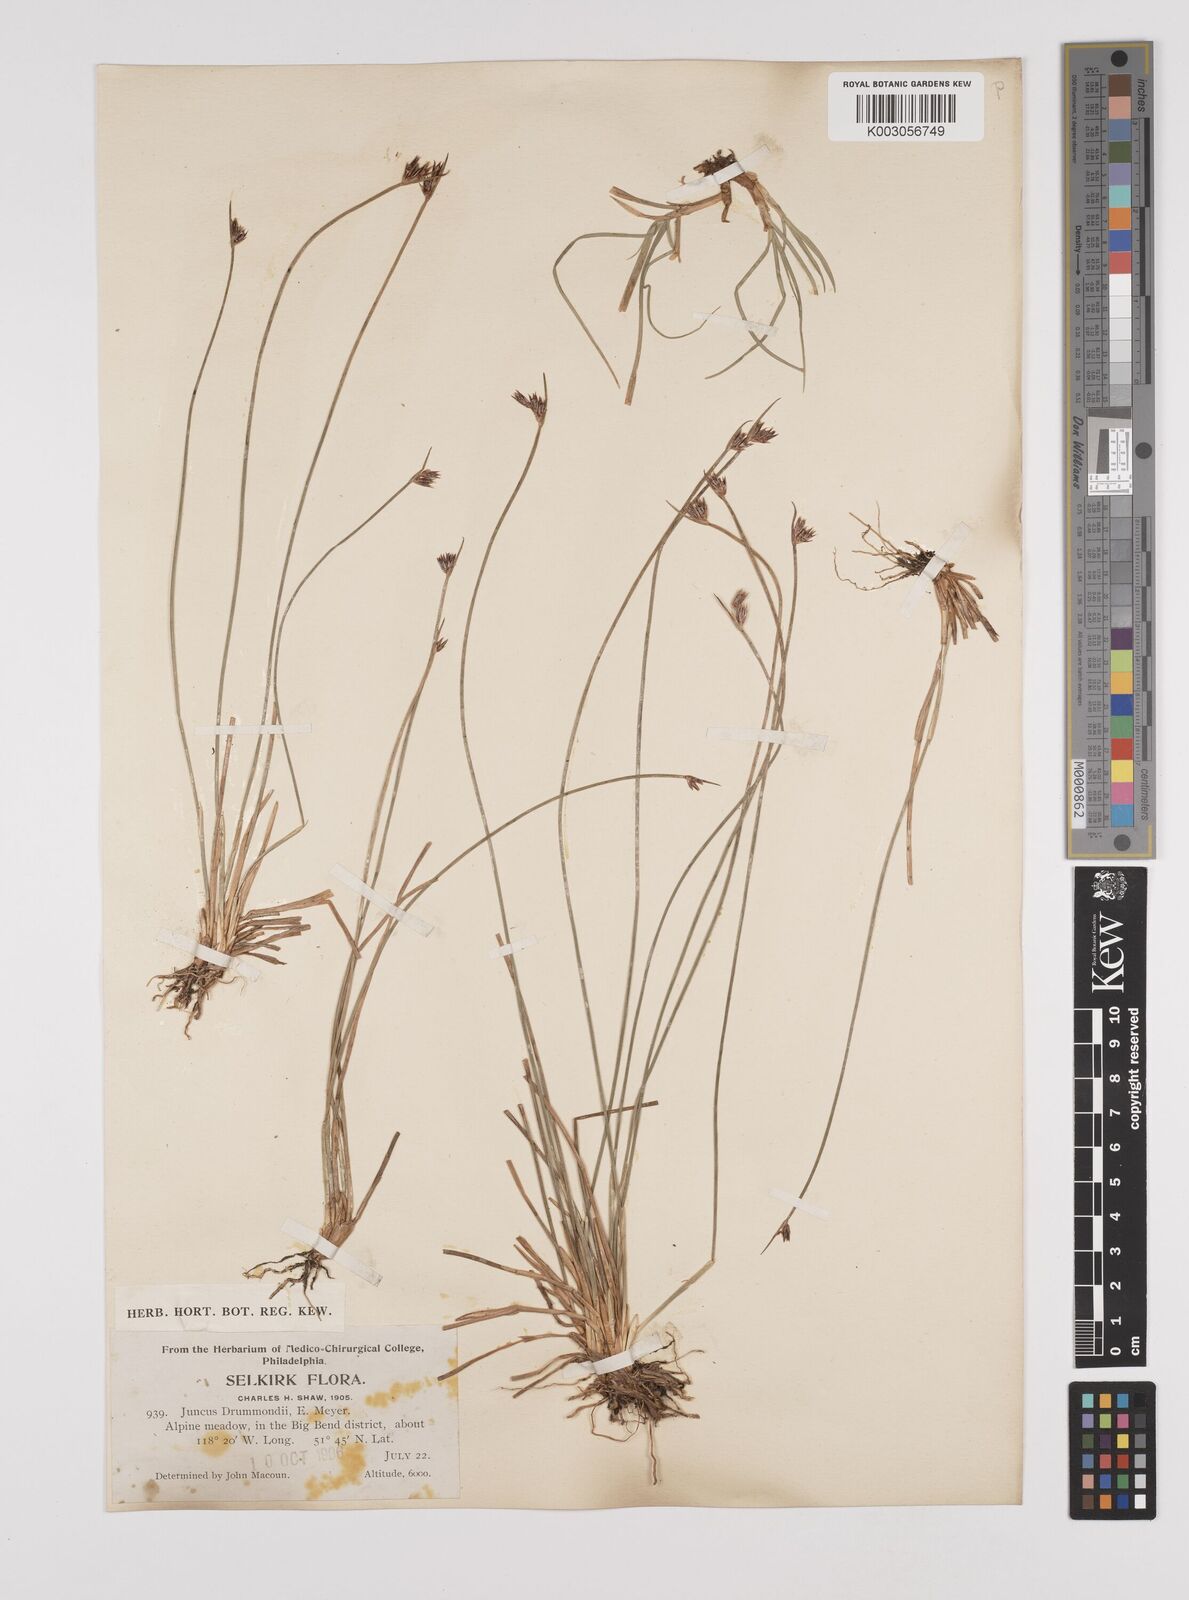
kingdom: Plantae
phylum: Tracheophyta
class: Liliopsida
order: Poales
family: Juncaceae
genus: Juncus
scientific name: Juncus drummondii
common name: Drummond's rush
